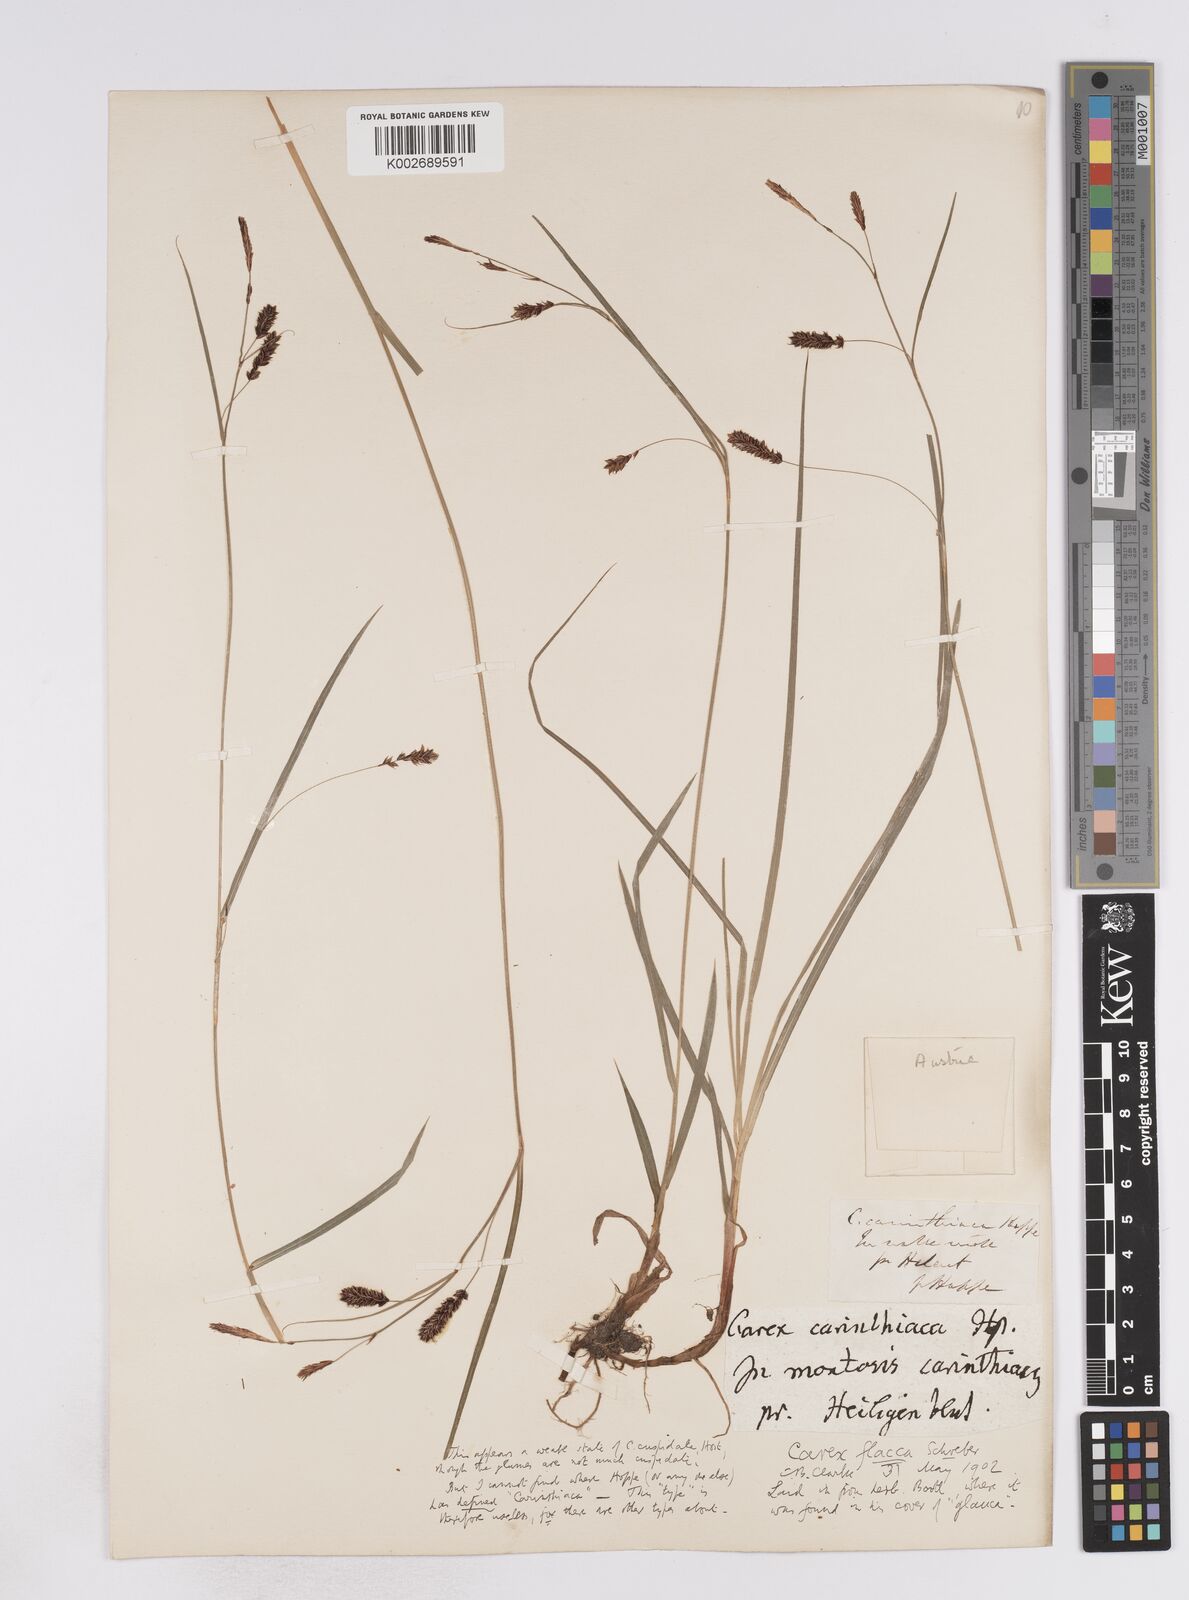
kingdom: Plantae
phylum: Tracheophyta
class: Liliopsida
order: Poales
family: Cyperaceae
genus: Carex
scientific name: Carex flacca
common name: Glaucous sedge
